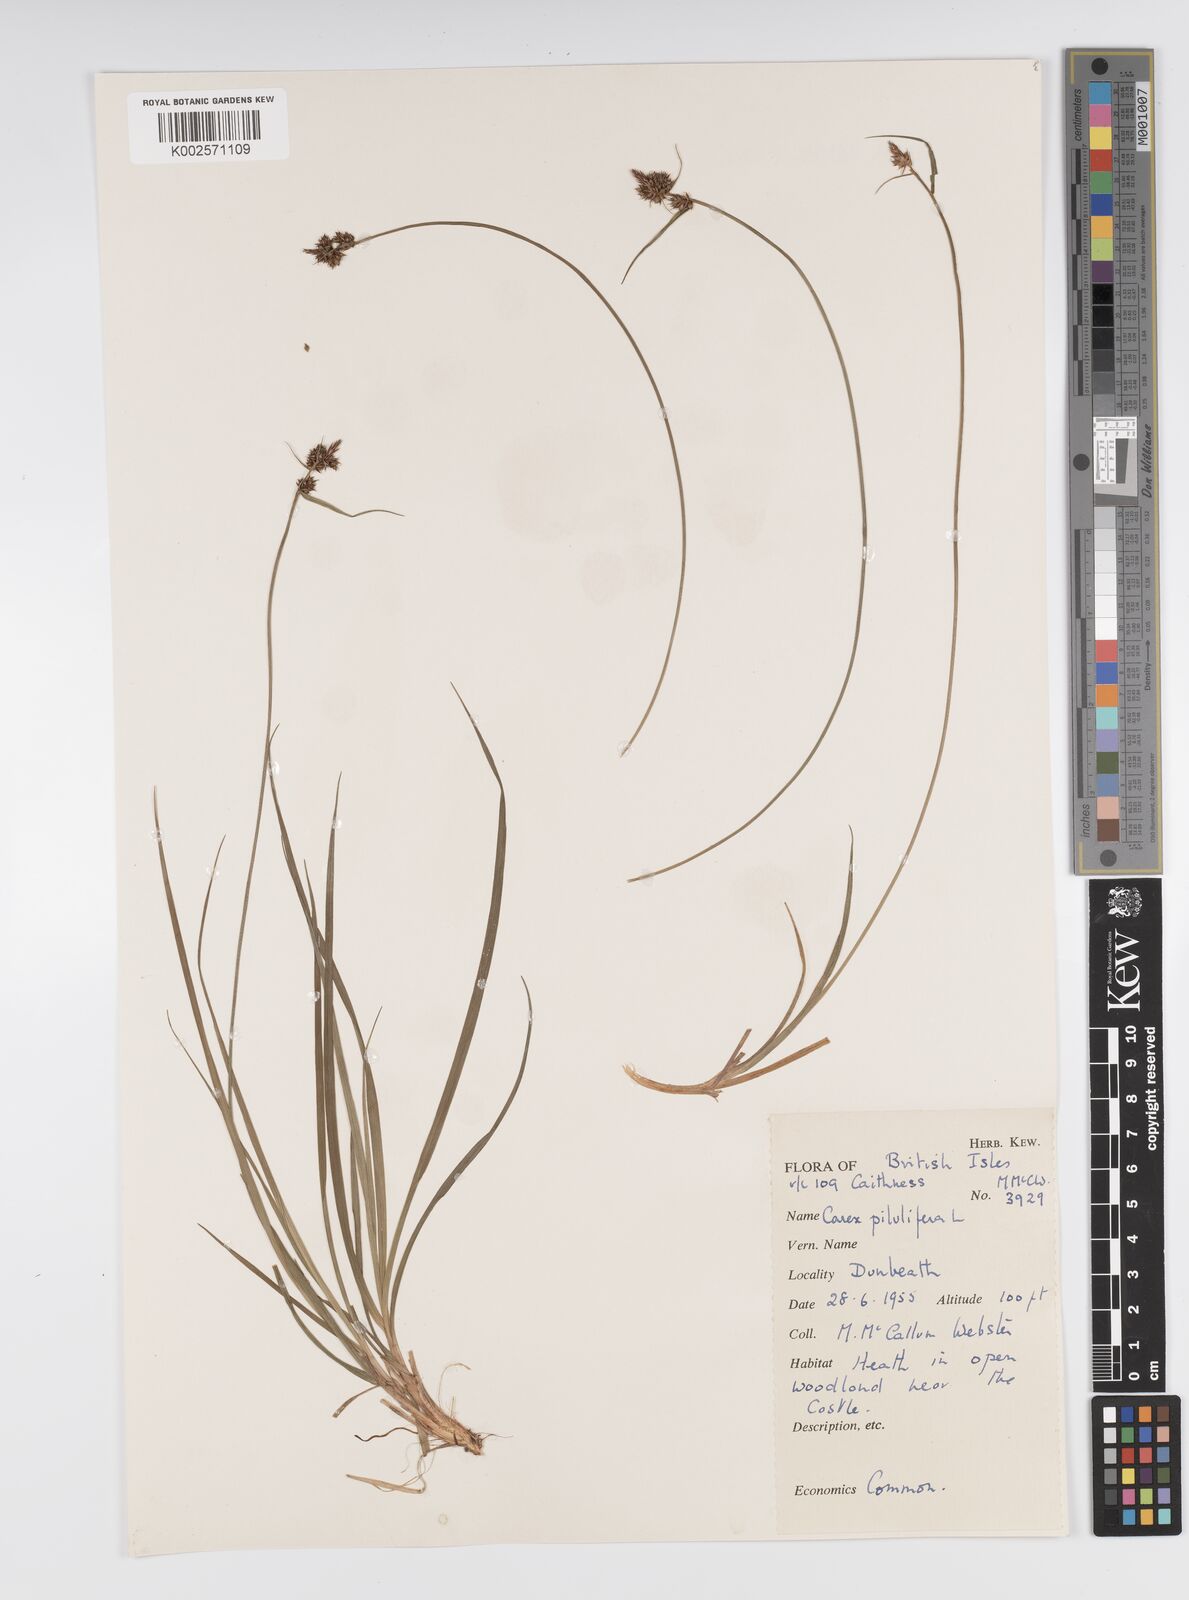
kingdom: Plantae
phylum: Tracheophyta
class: Liliopsida
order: Poales
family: Cyperaceae
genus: Carex
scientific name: Carex pilulifera
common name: Pill sedge
